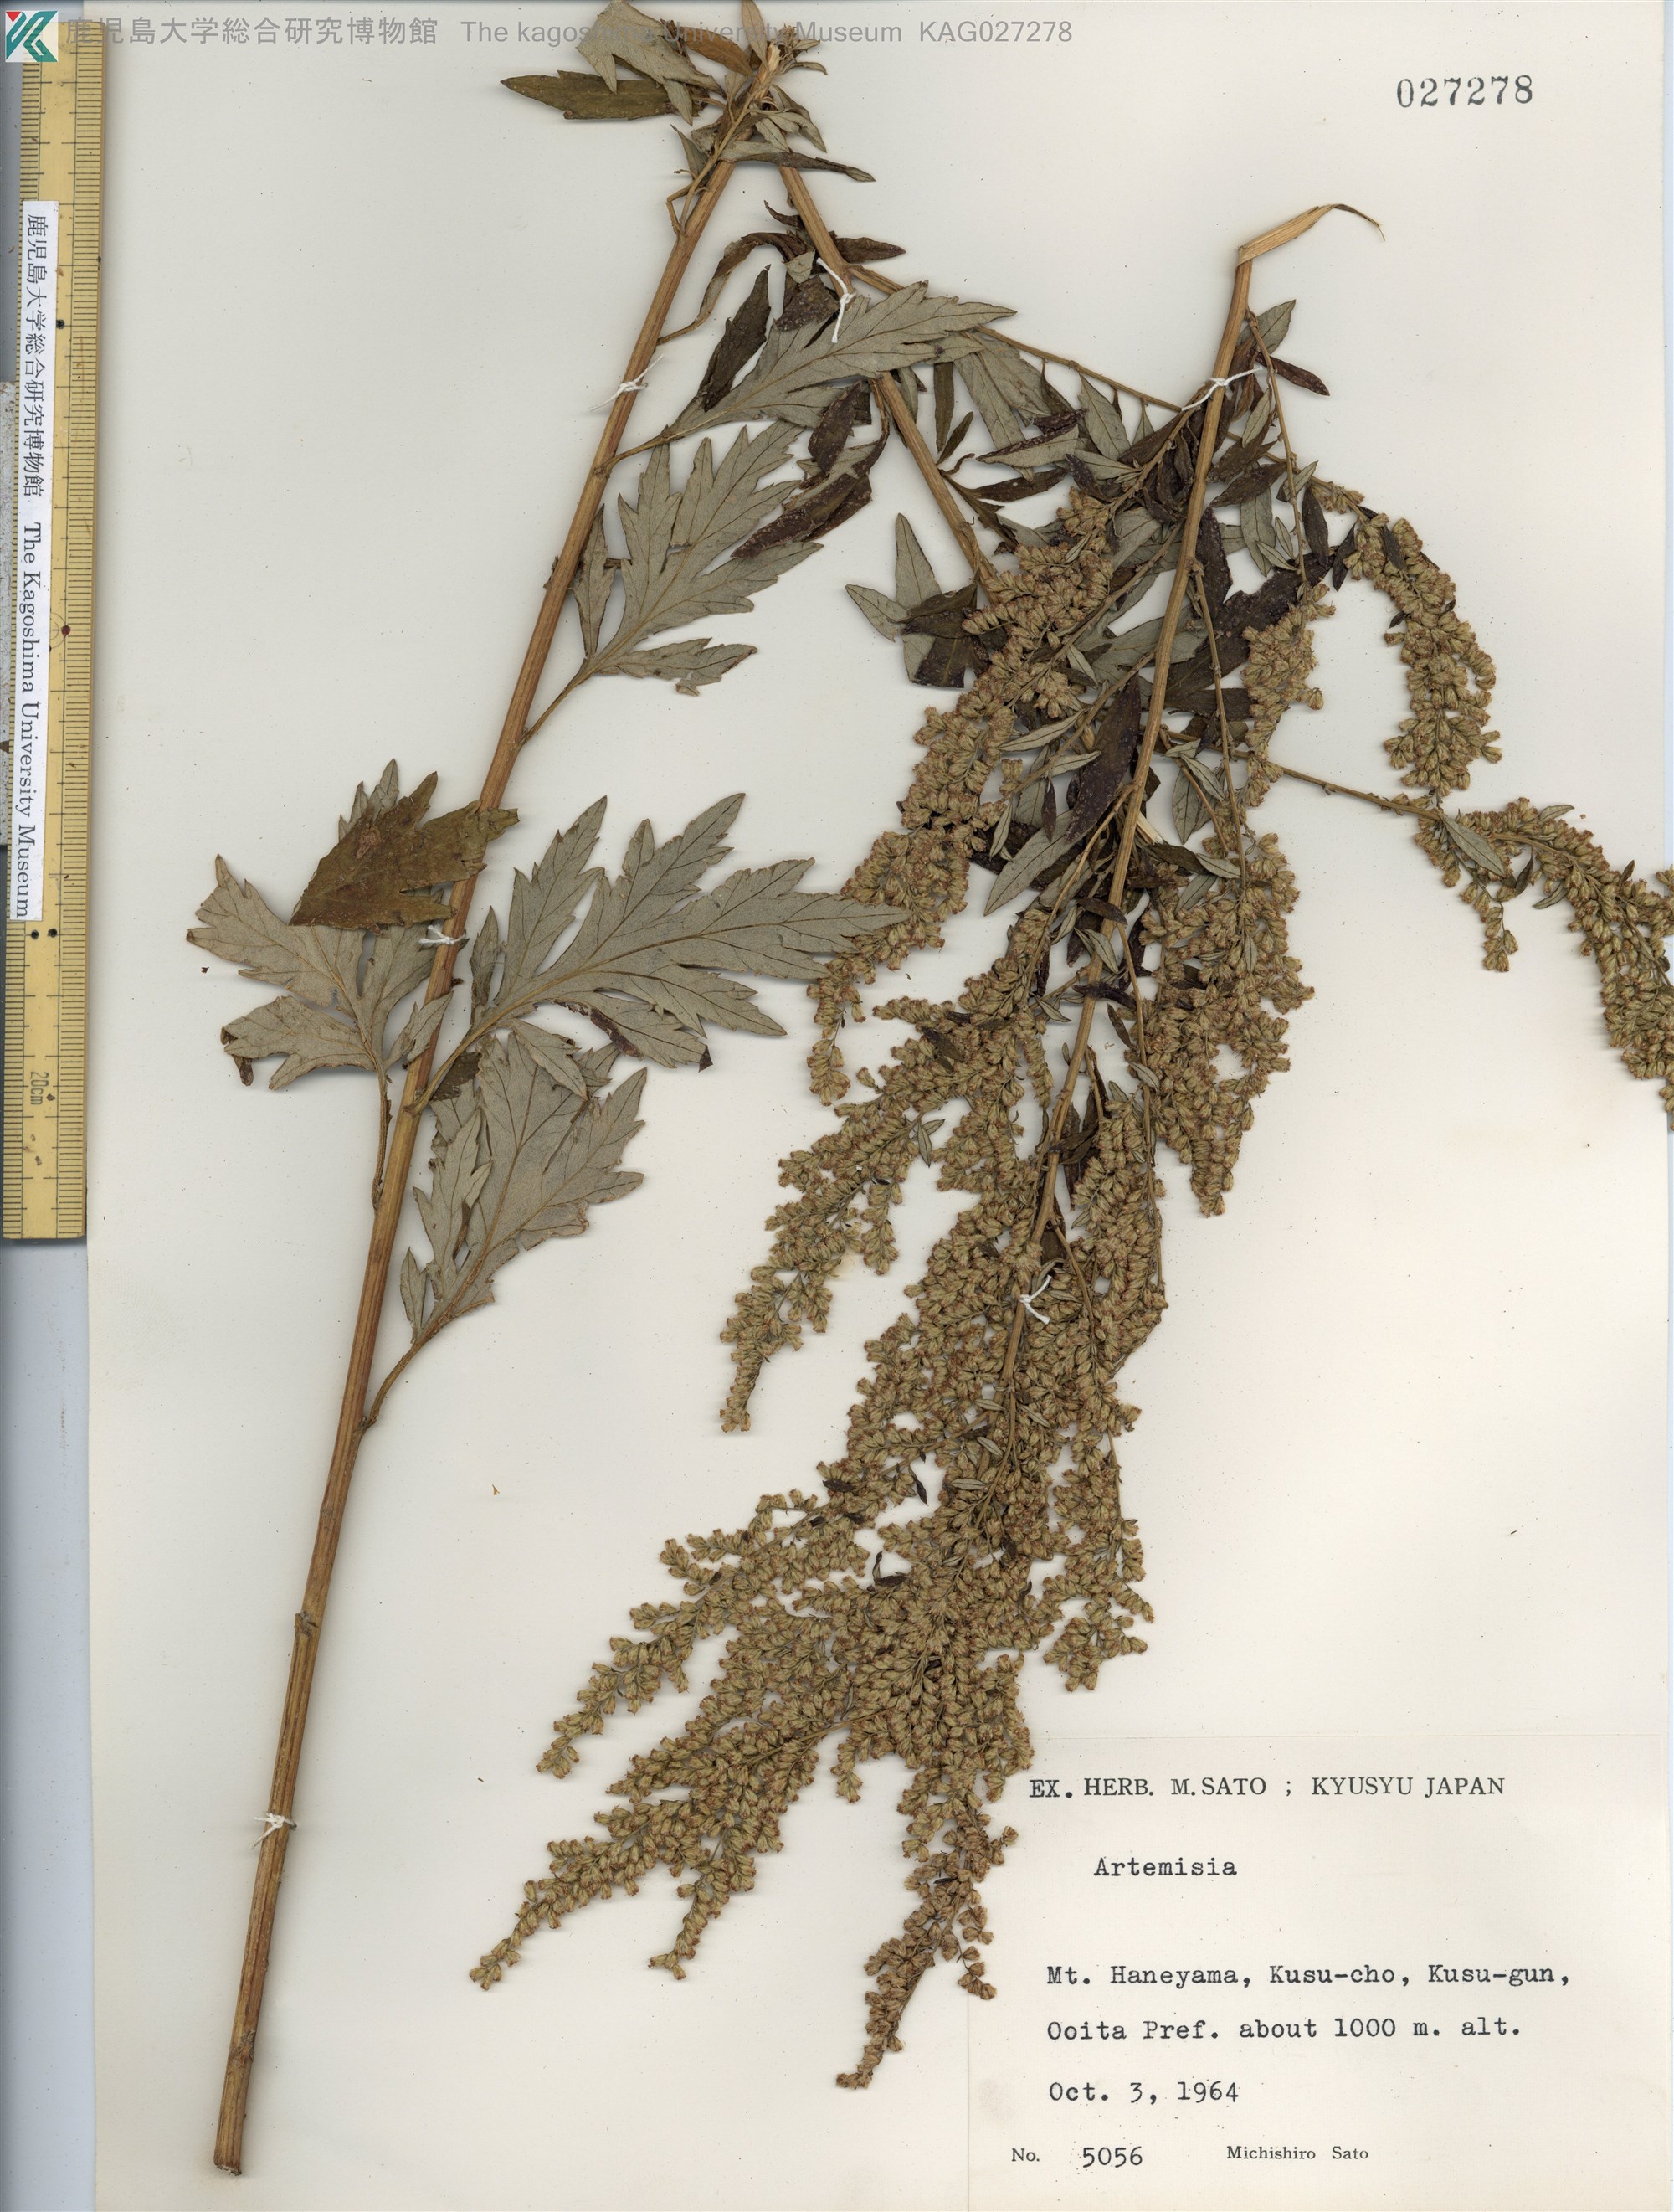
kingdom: Plantae
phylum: Tracheophyta
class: Magnoliopsida
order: Asterales
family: Asteraceae
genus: Artemisia
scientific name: Artemisia stolonifera
